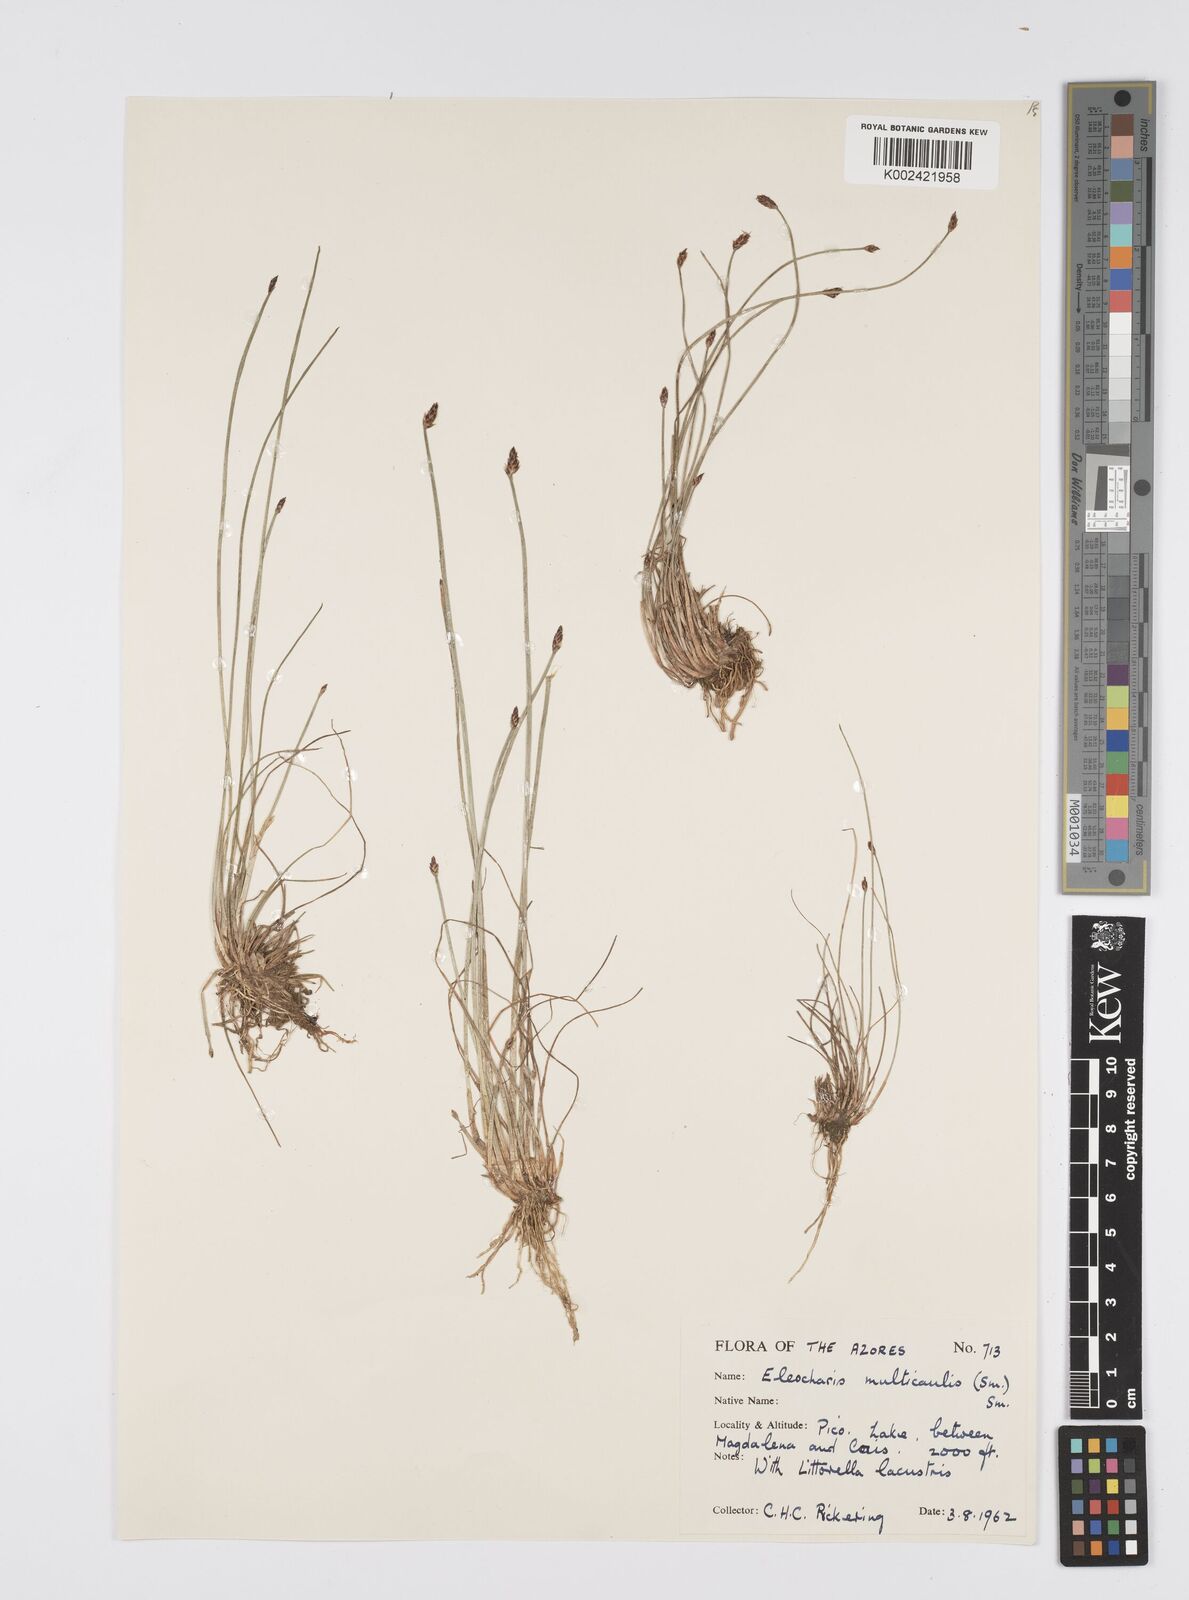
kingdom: Plantae
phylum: Tracheophyta
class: Liliopsida
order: Poales
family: Cyperaceae
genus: Eleocharis
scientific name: Eleocharis multicaulis
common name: Many-stalked spike-rush
